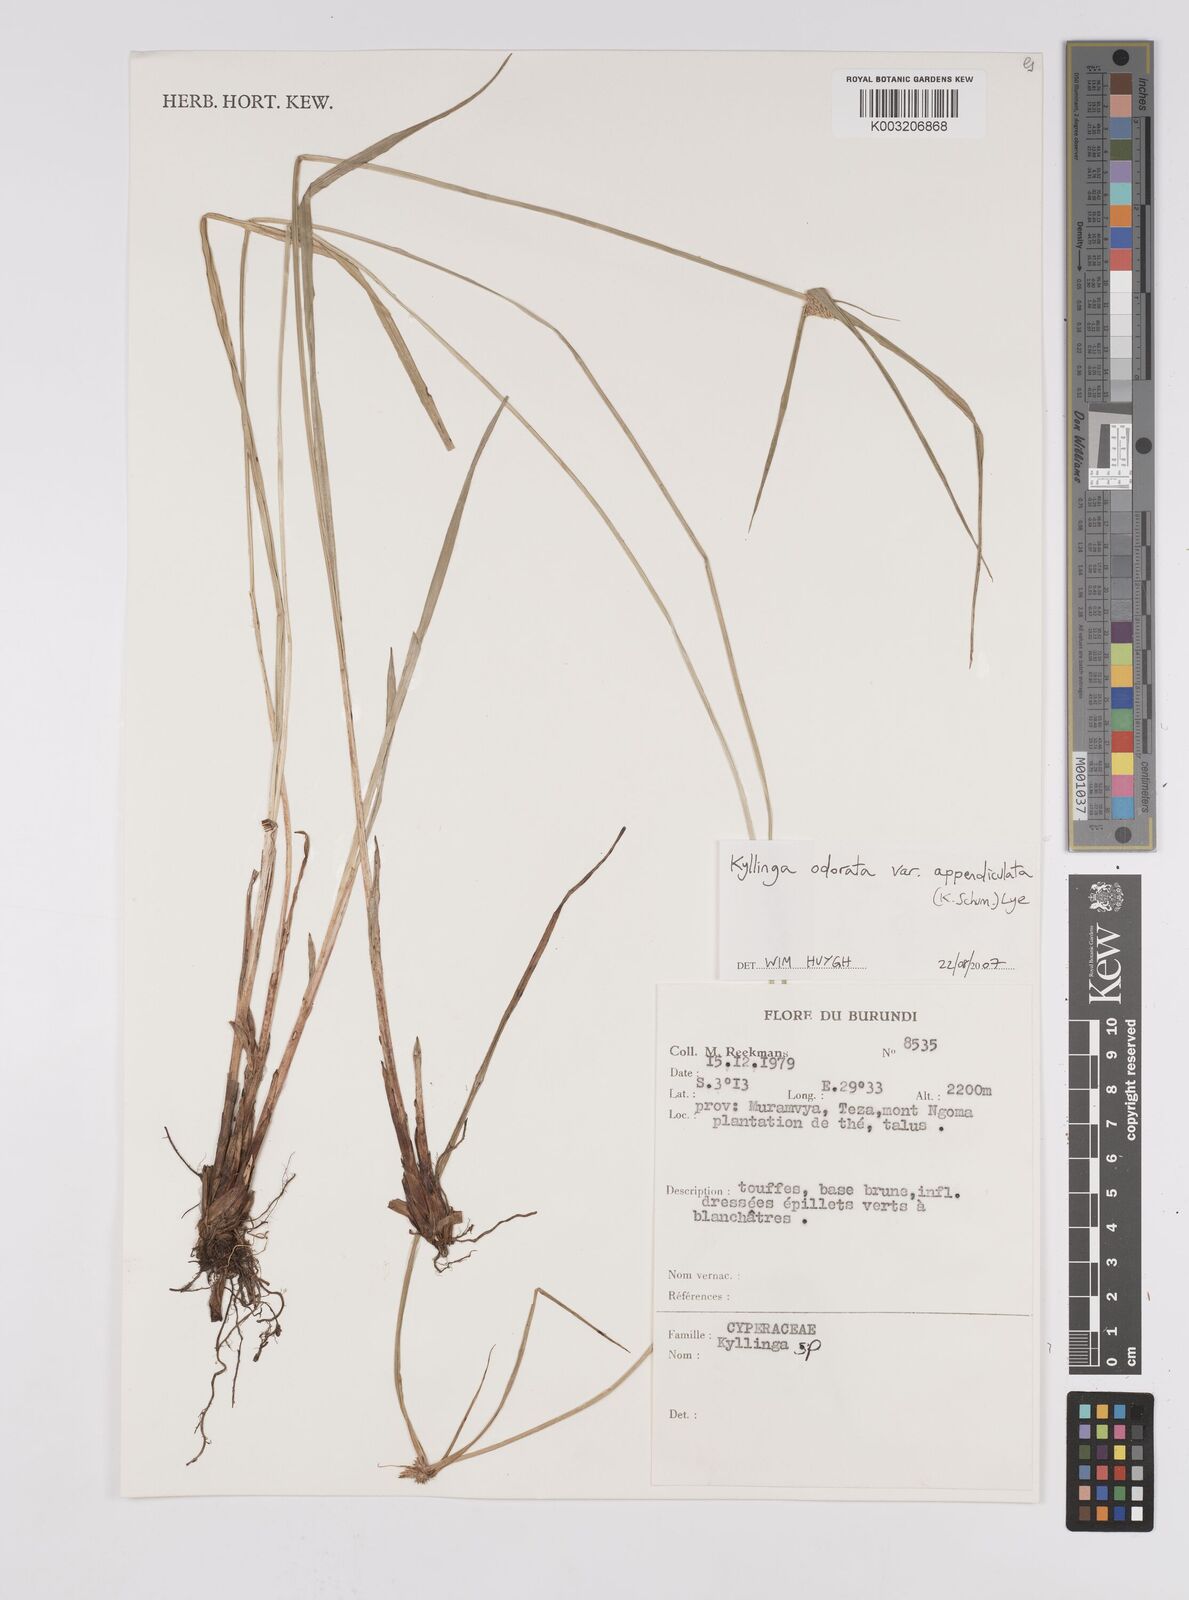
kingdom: Plantae
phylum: Tracheophyta
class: Liliopsida
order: Poales
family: Cyperaceae
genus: Cyperus
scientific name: Cyperus odoratus
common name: Fragrant flatsedge
